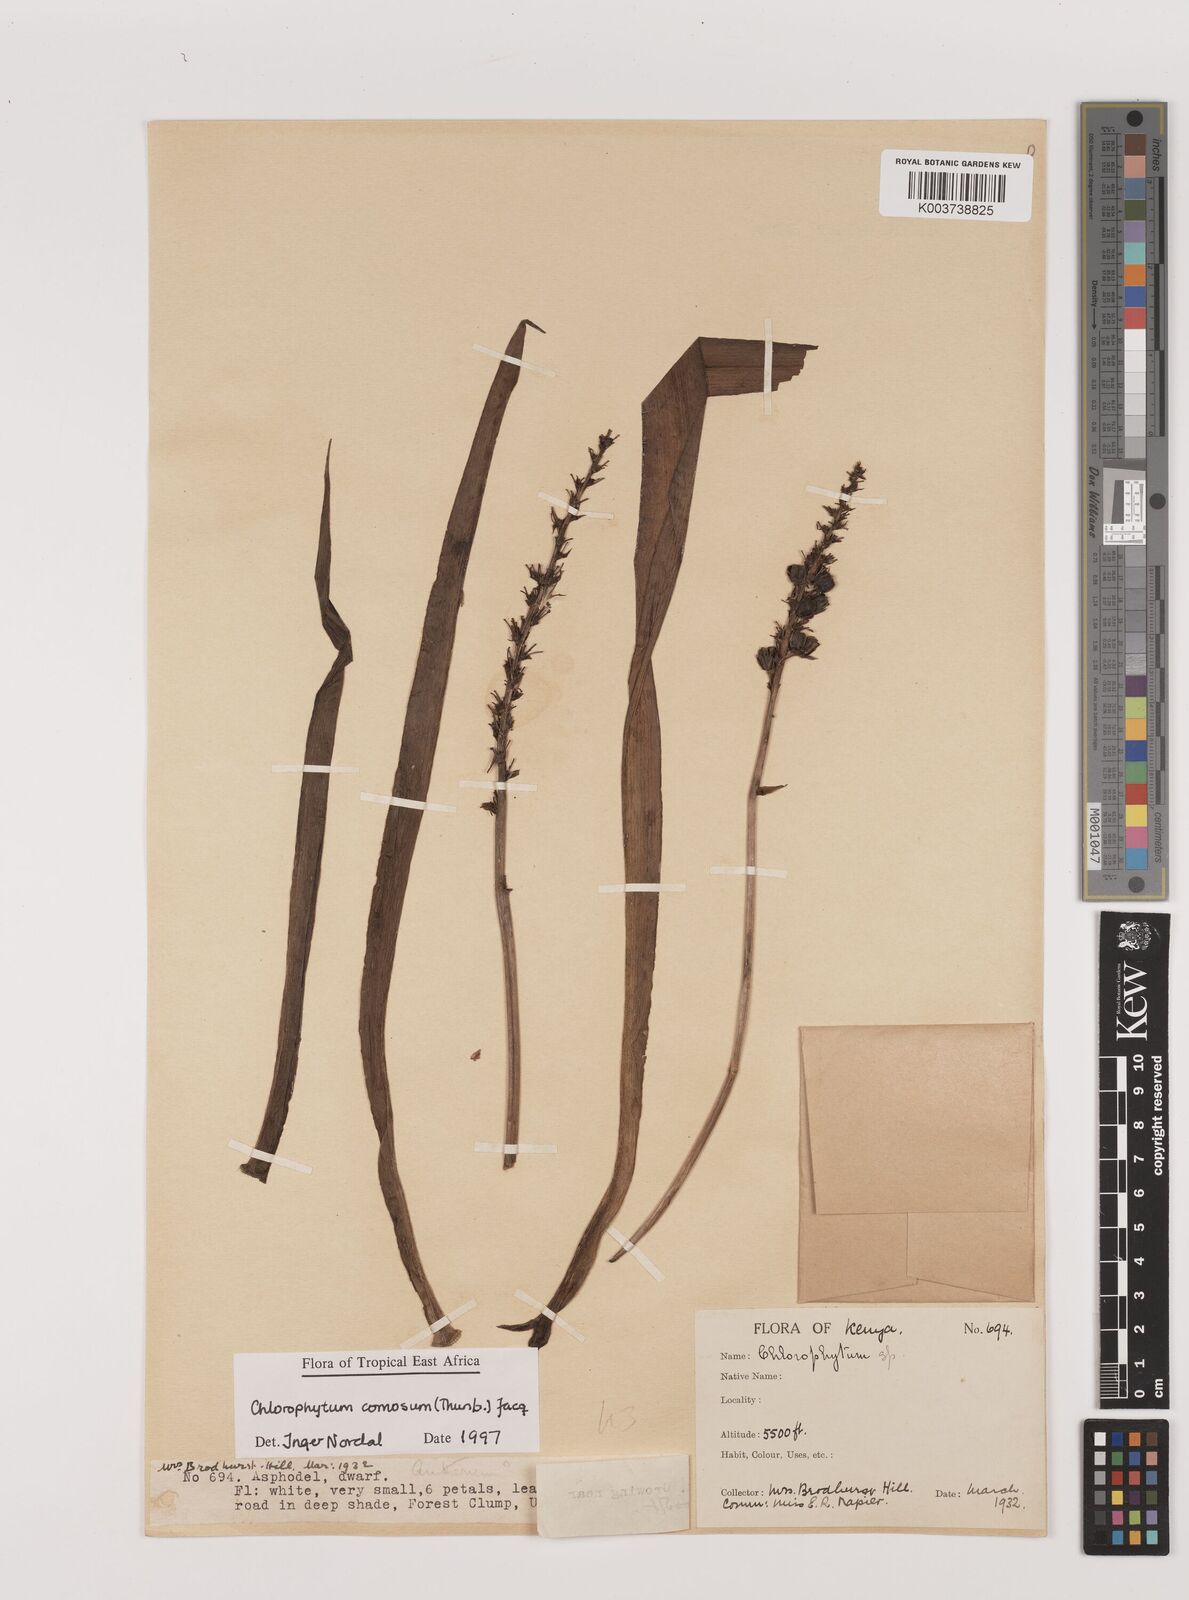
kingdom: Plantae
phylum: Tracheophyta
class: Liliopsida
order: Asparagales
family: Asparagaceae
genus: Chlorophytum
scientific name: Chlorophytum comosum
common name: Spider plant
